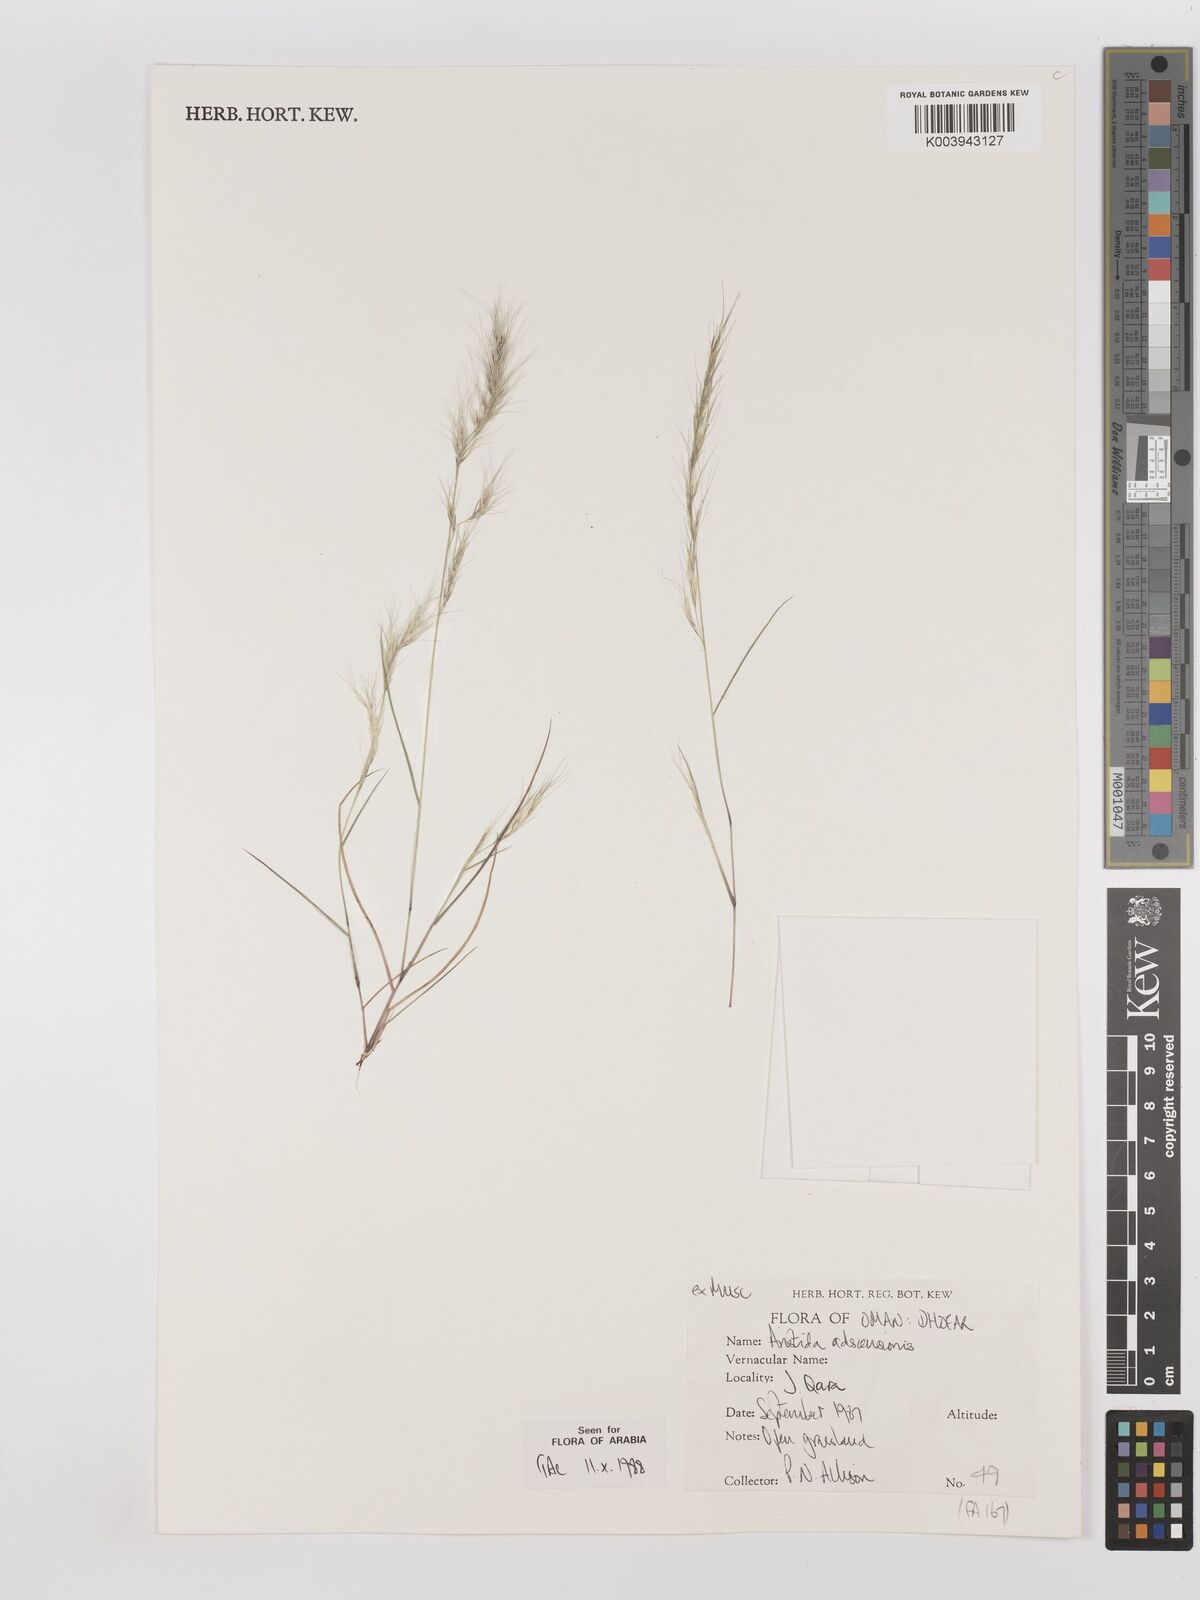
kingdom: Plantae
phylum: Tracheophyta
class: Liliopsida
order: Poales
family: Poaceae
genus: Aristida
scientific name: Aristida adscensionis
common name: Sixweeks threeawn
